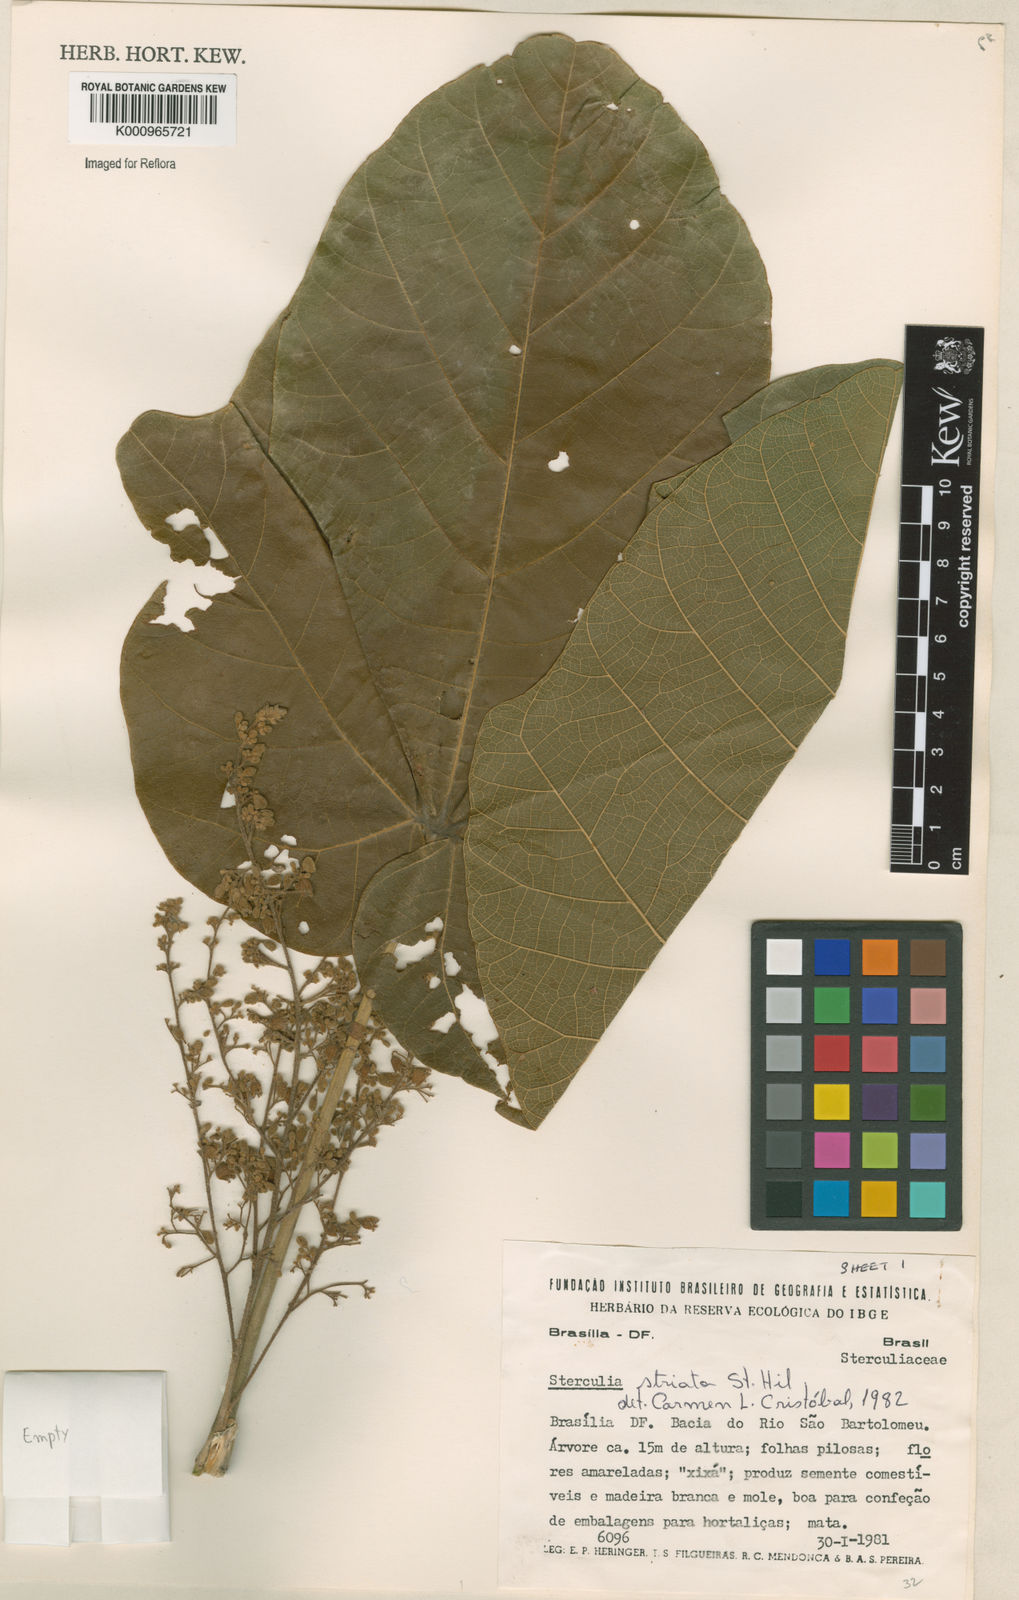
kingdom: Plantae
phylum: Tracheophyta
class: Magnoliopsida
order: Malvales
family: Malvaceae
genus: Sterculia
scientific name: Sterculia striata
